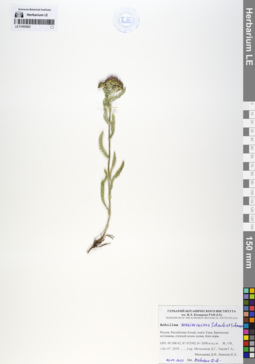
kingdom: Plantae
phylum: Tracheophyta
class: Magnoliopsida
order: Asterales
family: Asteraceae
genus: Achillea
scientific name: Achillea sergievskiana
